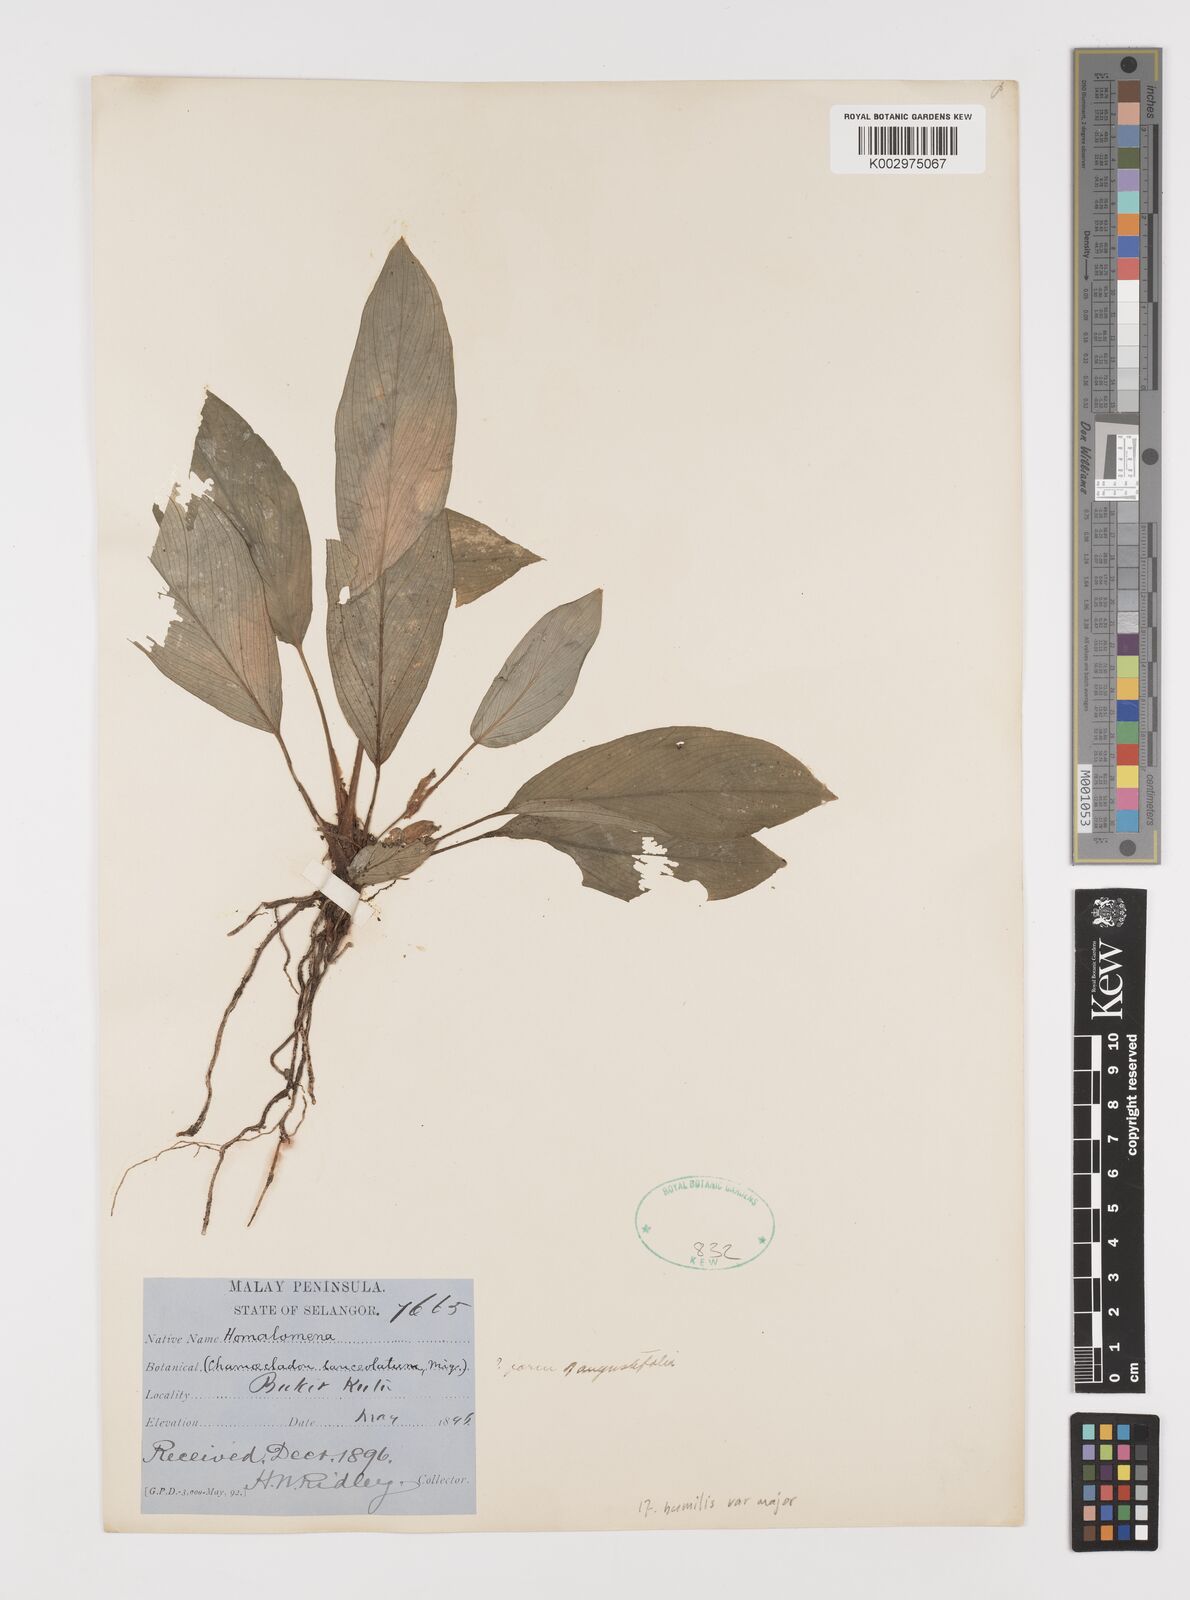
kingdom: Plantae
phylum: Tracheophyta
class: Liliopsida
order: Alismatales
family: Araceae
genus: Homalomena
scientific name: Homalomena humilis
